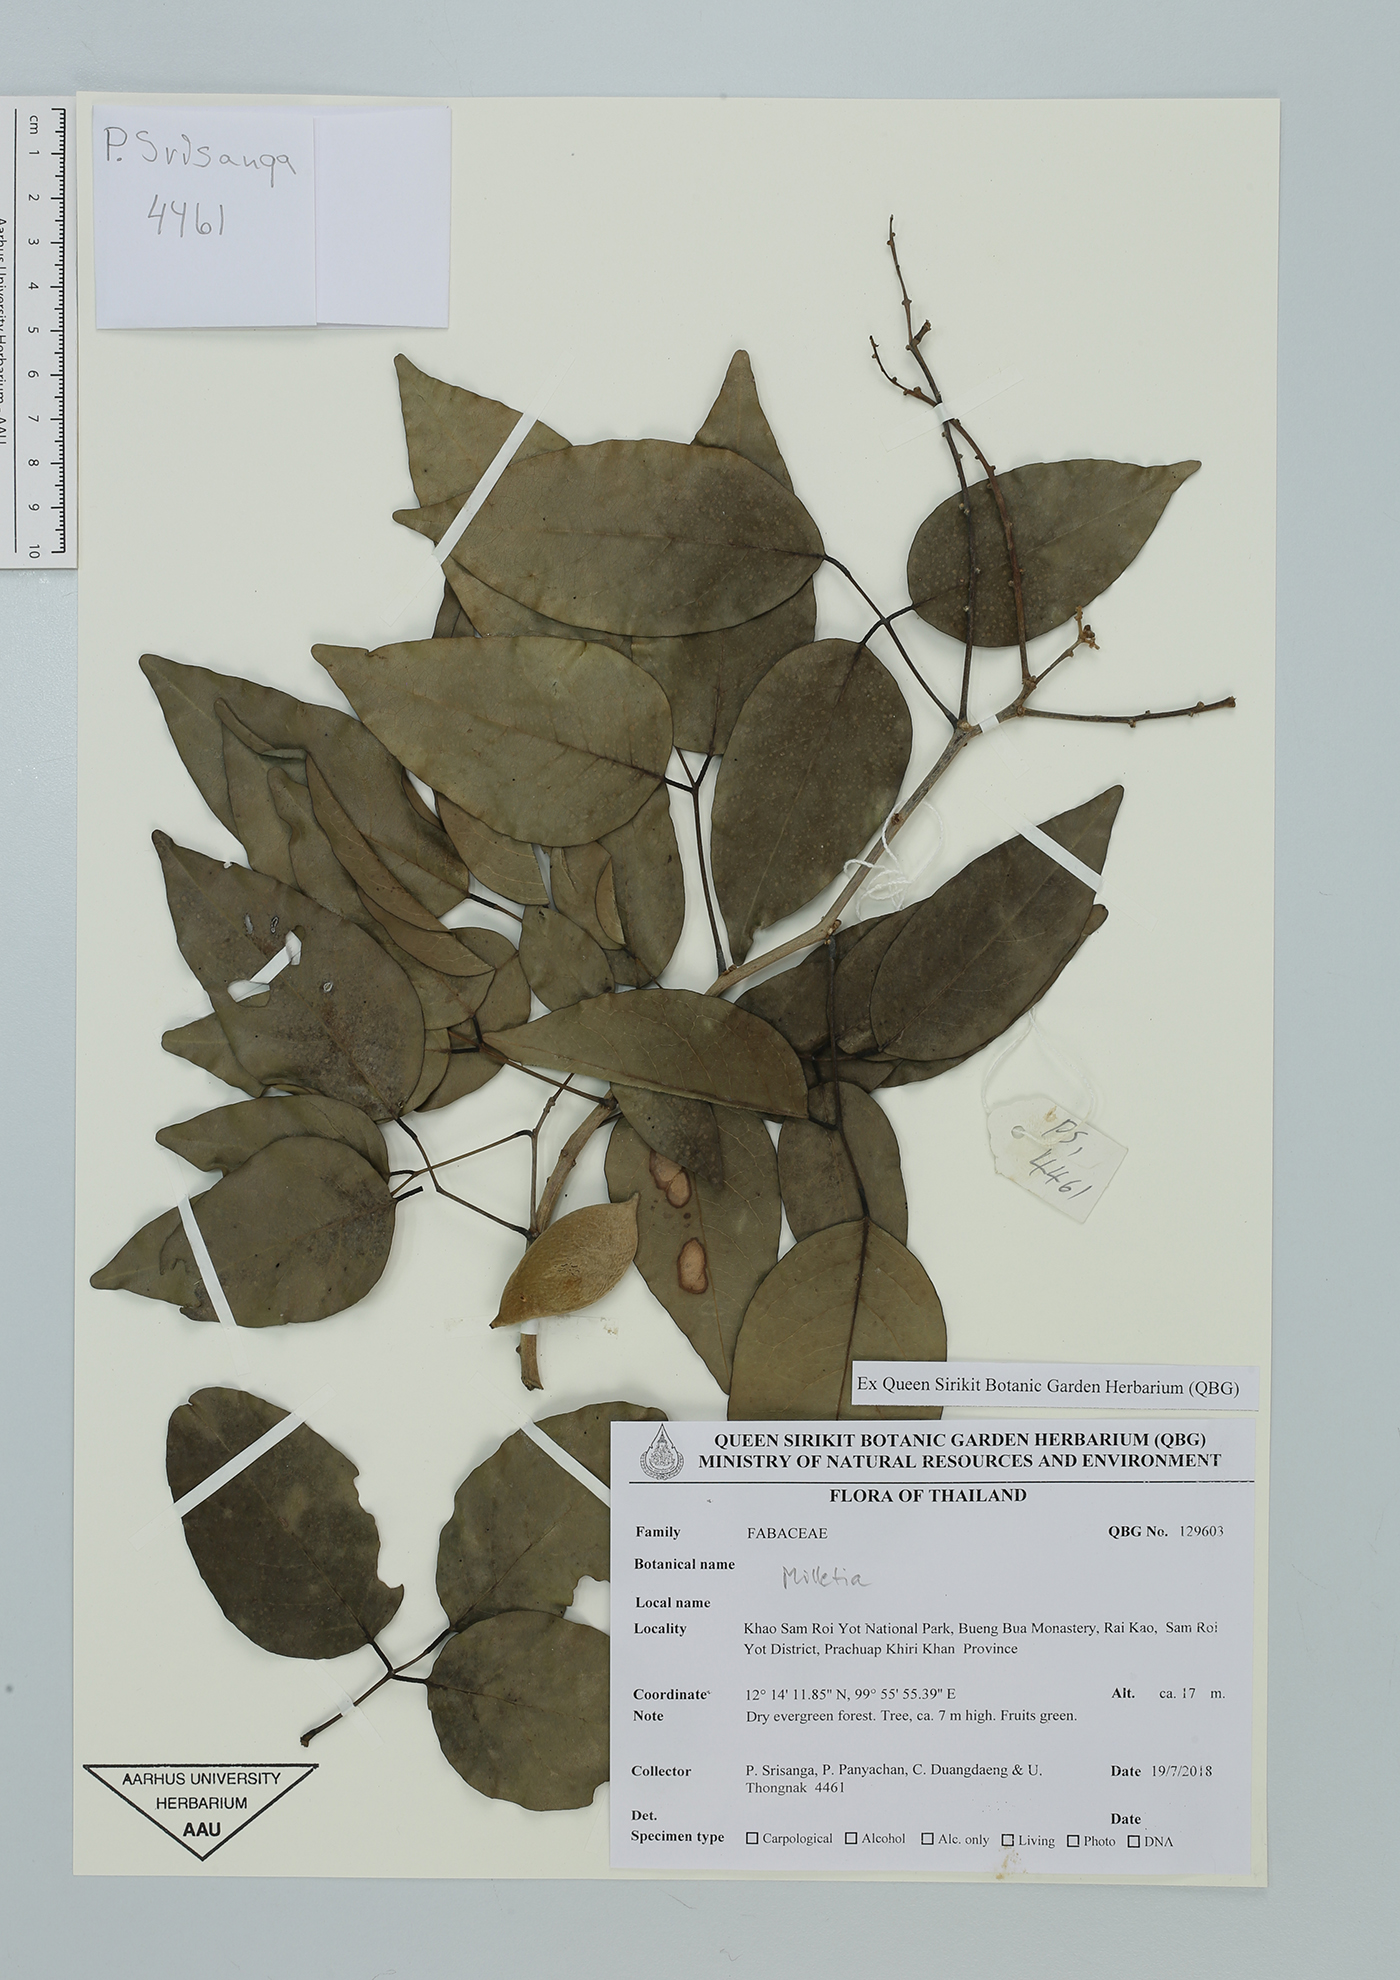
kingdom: Plantae
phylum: Tracheophyta
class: Magnoliopsida
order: Fabales
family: Fabaceae
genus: Millettia
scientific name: Millettia
